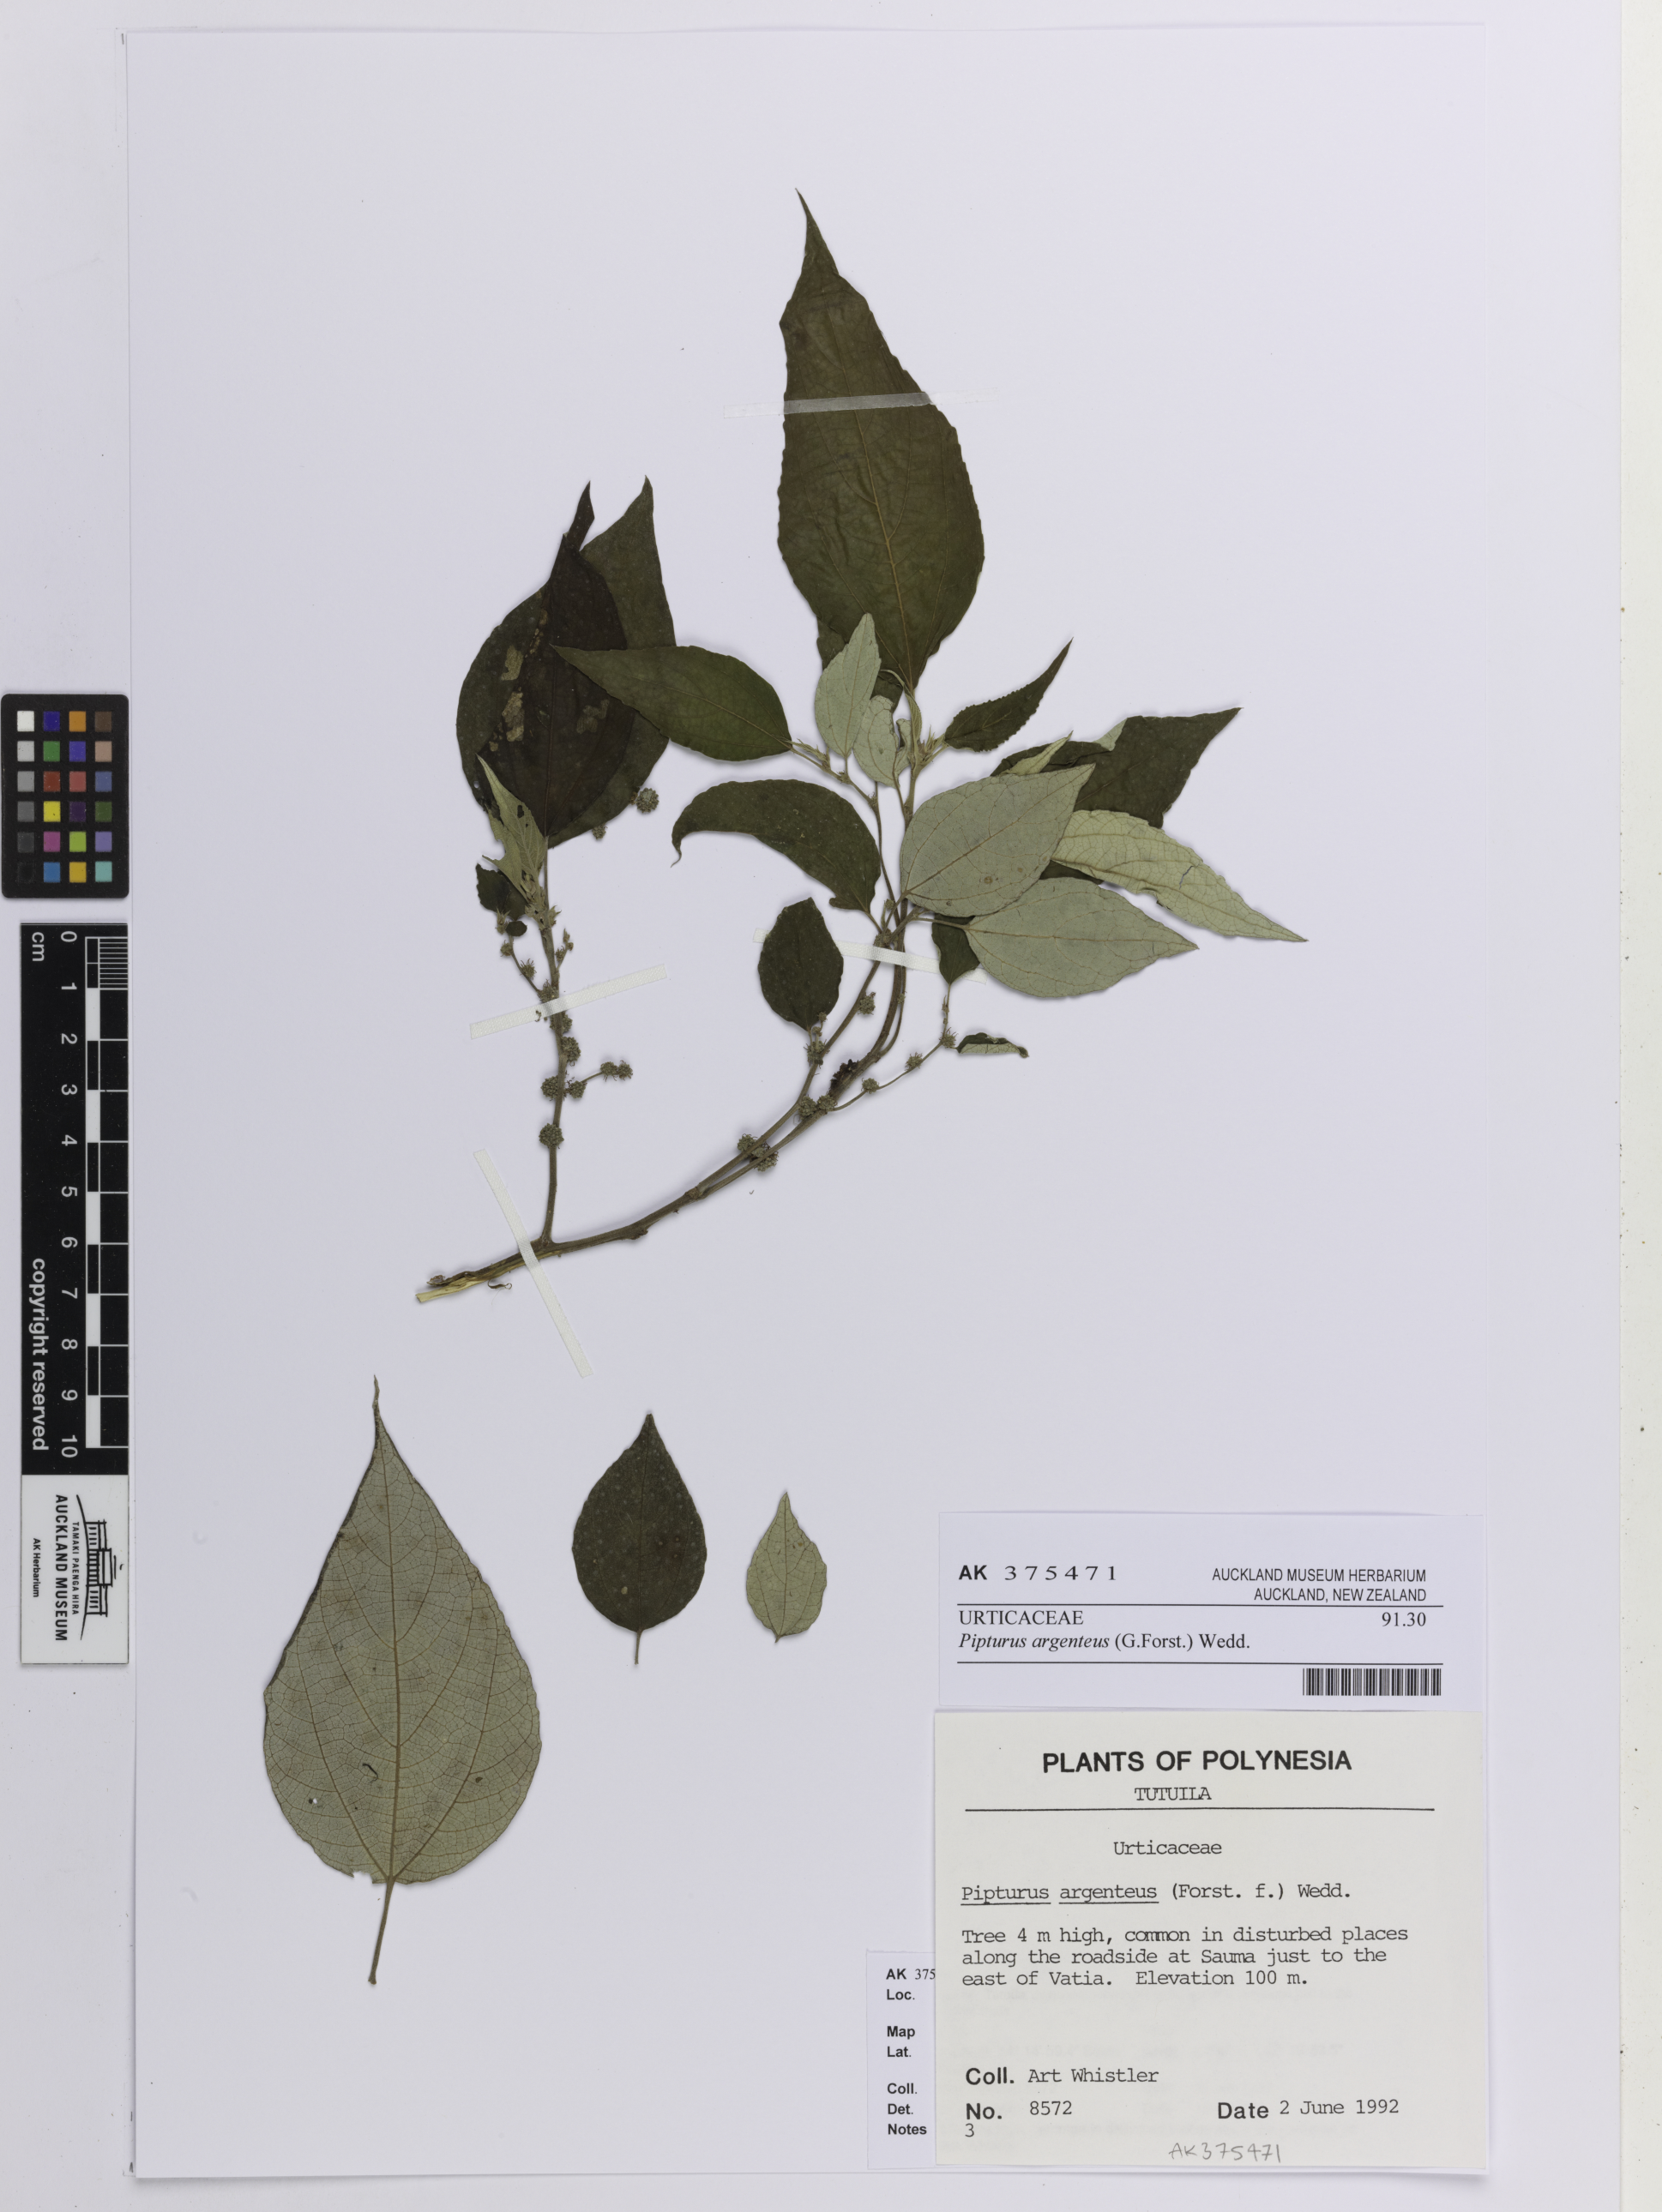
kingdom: Plantae
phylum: Tracheophyta
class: Magnoliopsida
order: Malvales
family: Malvaceae
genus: Kosteletzkya
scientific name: Kosteletzkya pentacarpos
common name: Virginia saltmarsh mallow
